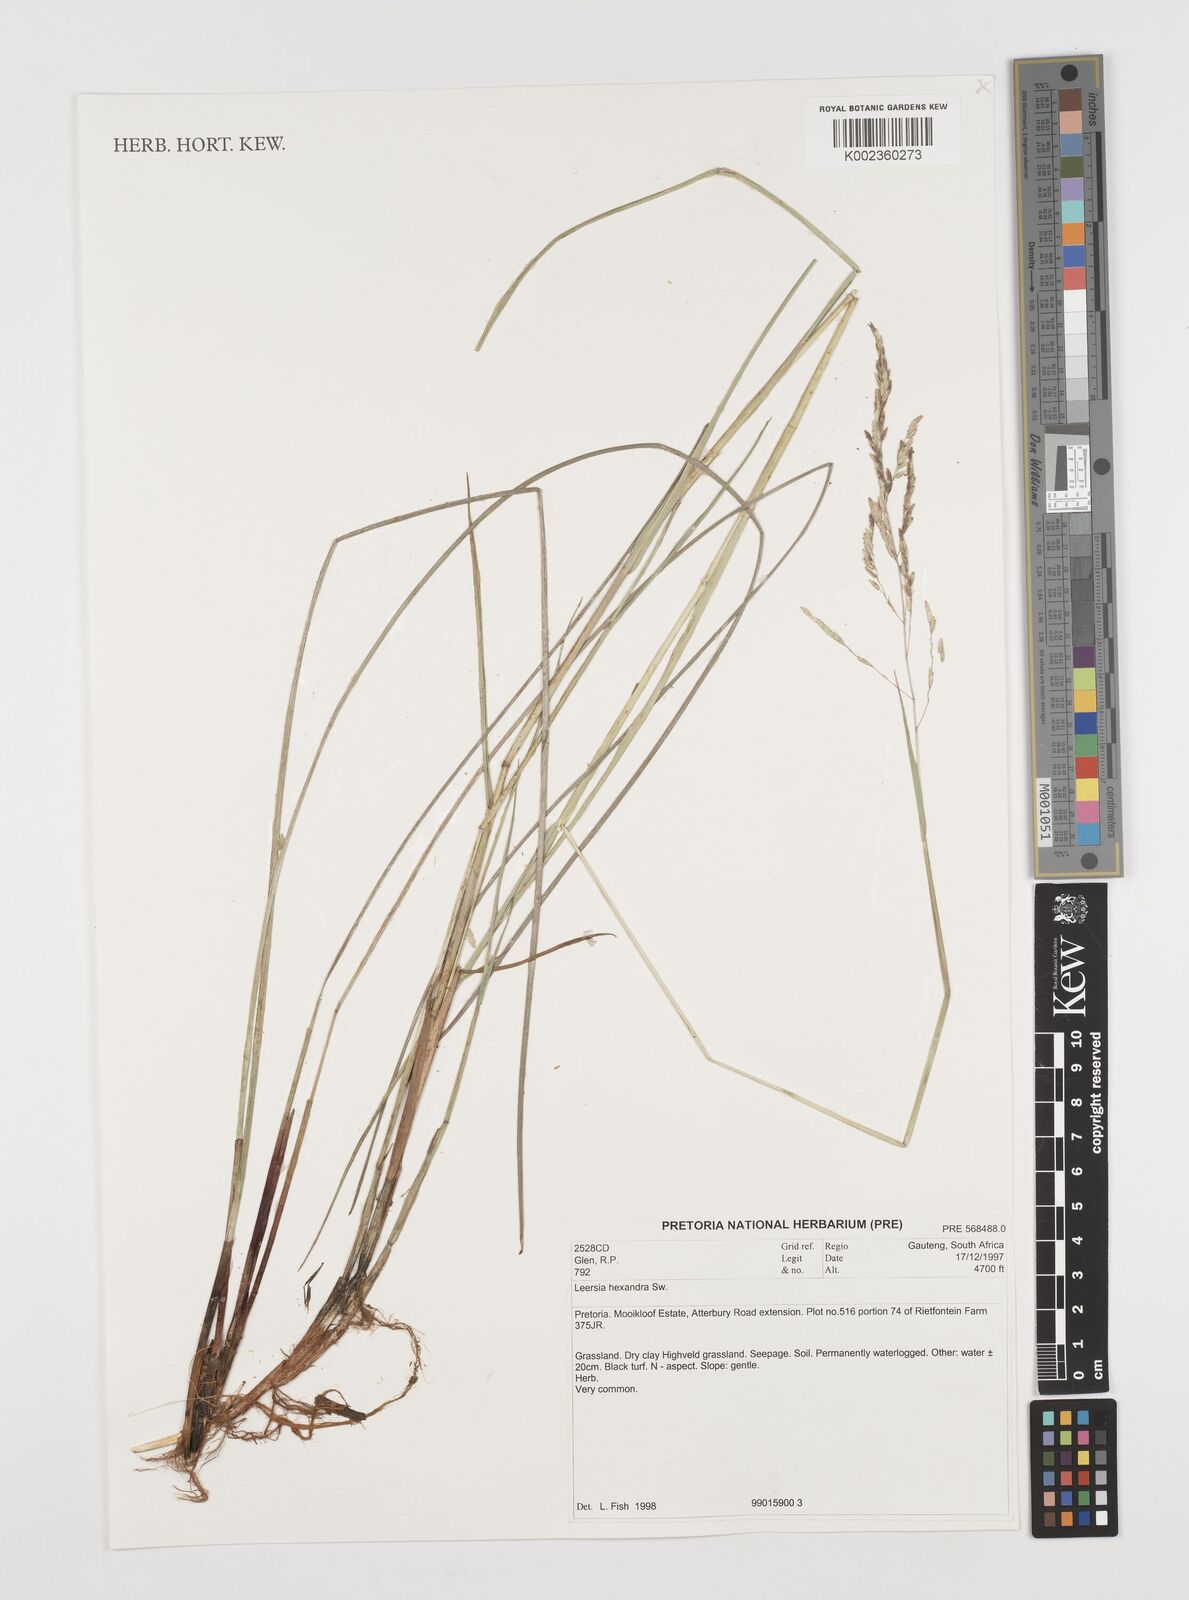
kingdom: Plantae
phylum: Tracheophyta
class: Liliopsida
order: Poales
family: Poaceae
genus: Leersia
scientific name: Leersia hexandra
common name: Southern cut grass
